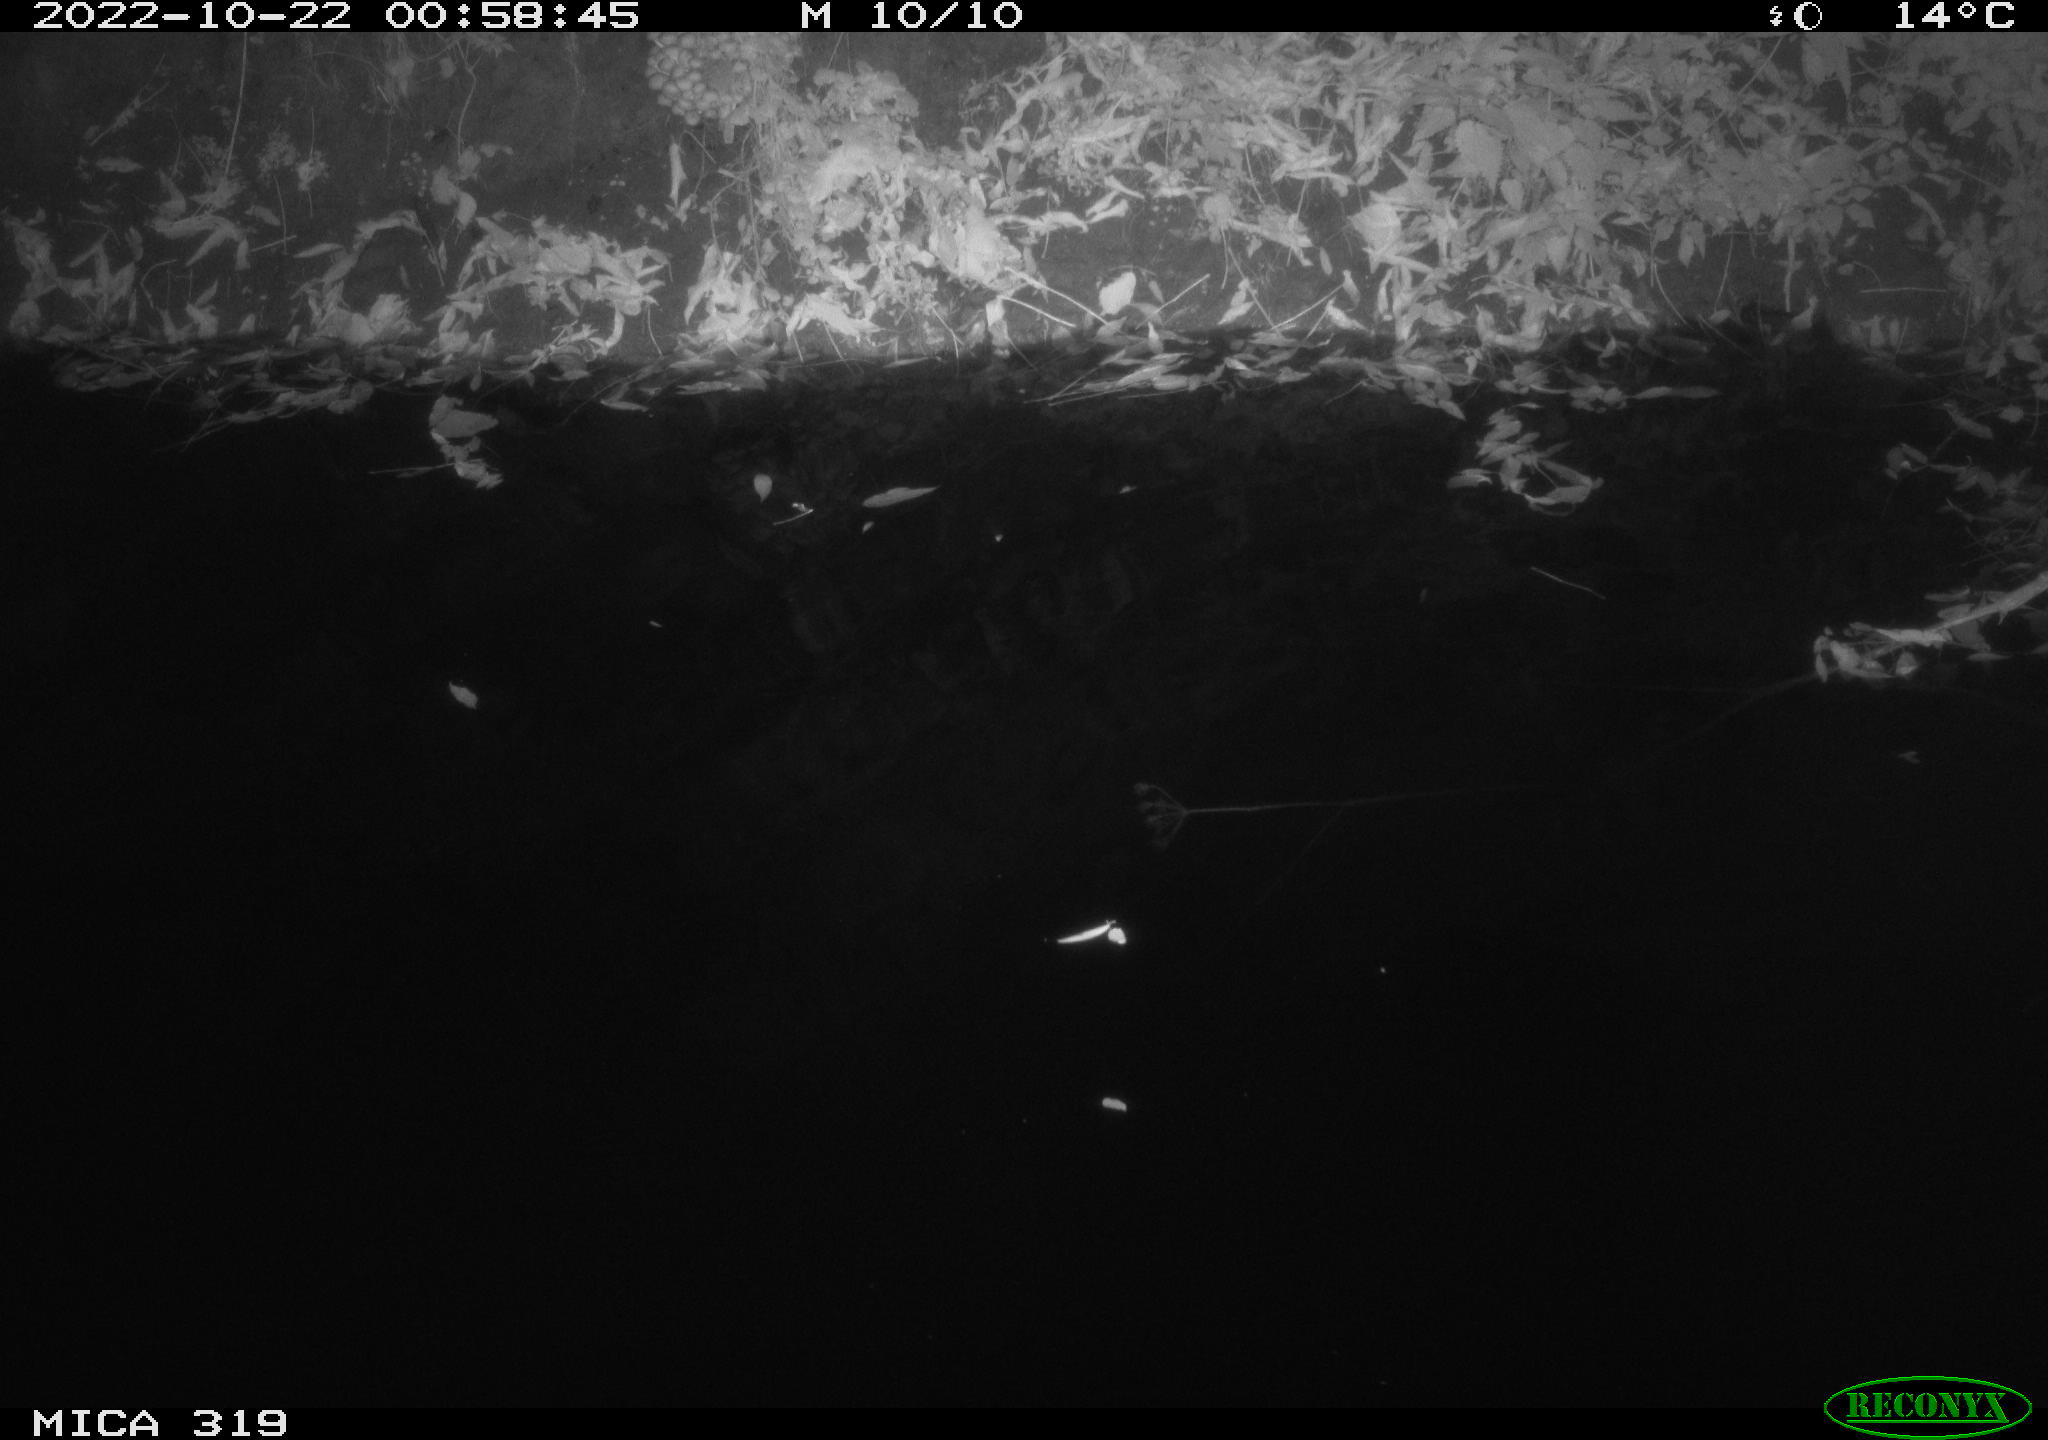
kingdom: Animalia
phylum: Chordata
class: Aves
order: Anseriformes
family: Anatidae
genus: Anas
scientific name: Anas
